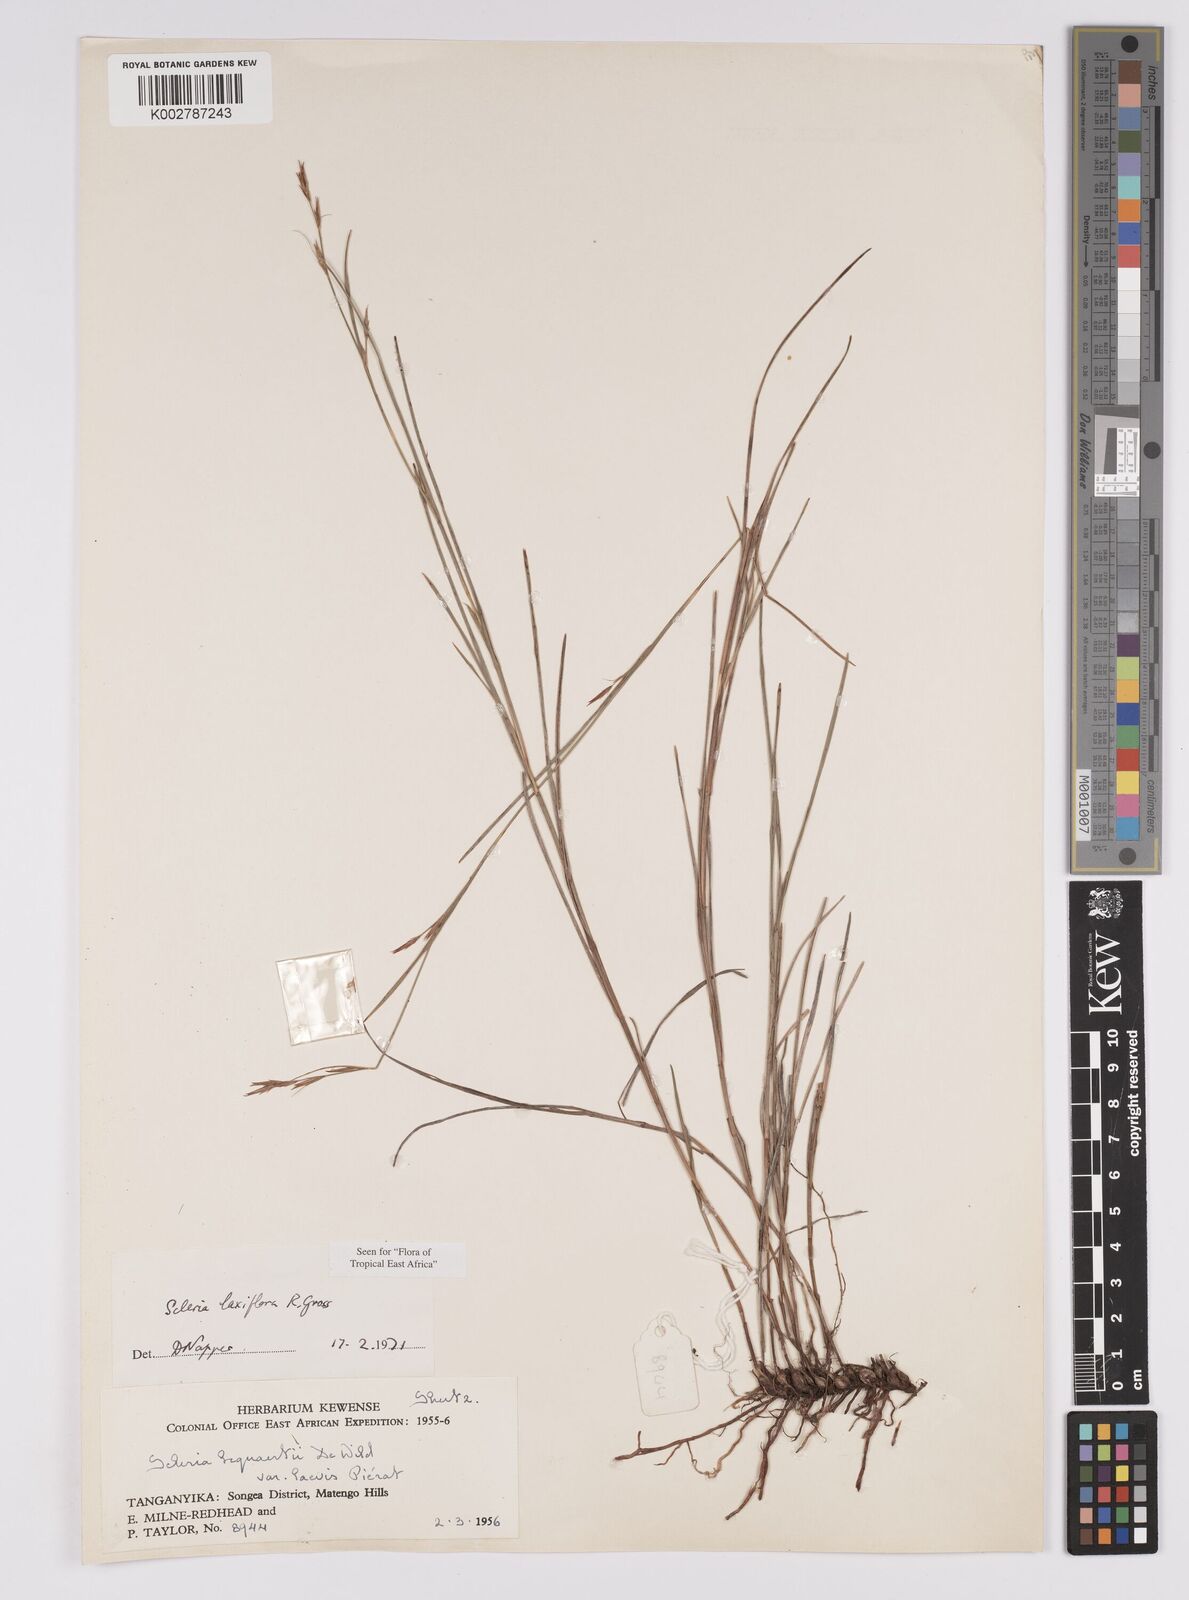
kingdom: Plantae
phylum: Tracheophyta
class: Liliopsida
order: Poales
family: Cyperaceae
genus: Scleria
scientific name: Scleria laxiflora
